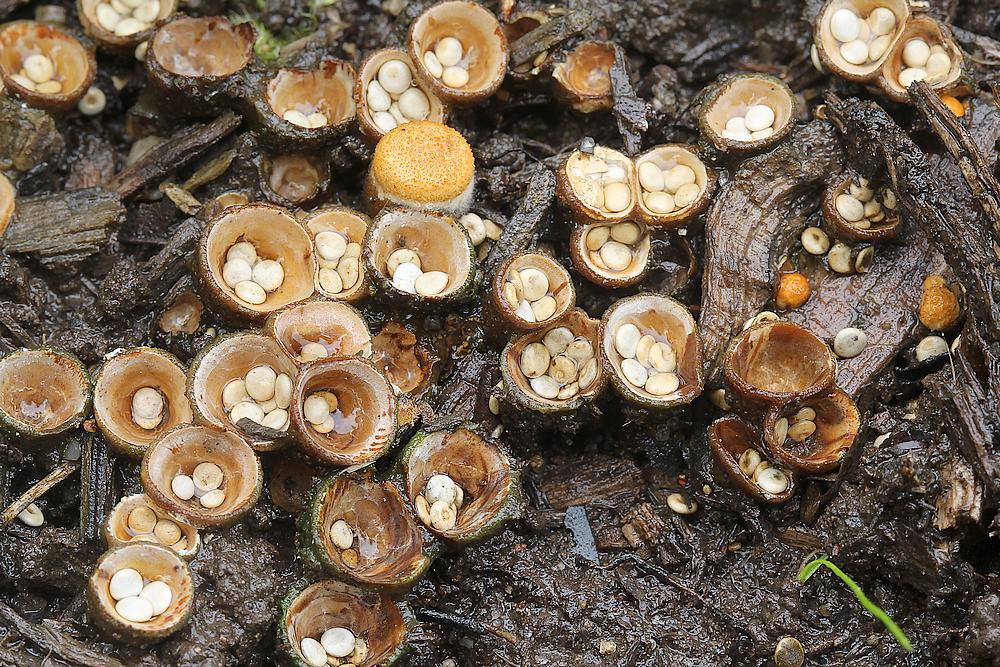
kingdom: Fungi
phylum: Basidiomycota
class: Agaricomycetes
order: Agaricales
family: Nidulariaceae
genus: Crucibulum
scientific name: Crucibulum crucibuliforme
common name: krukkesvamp
